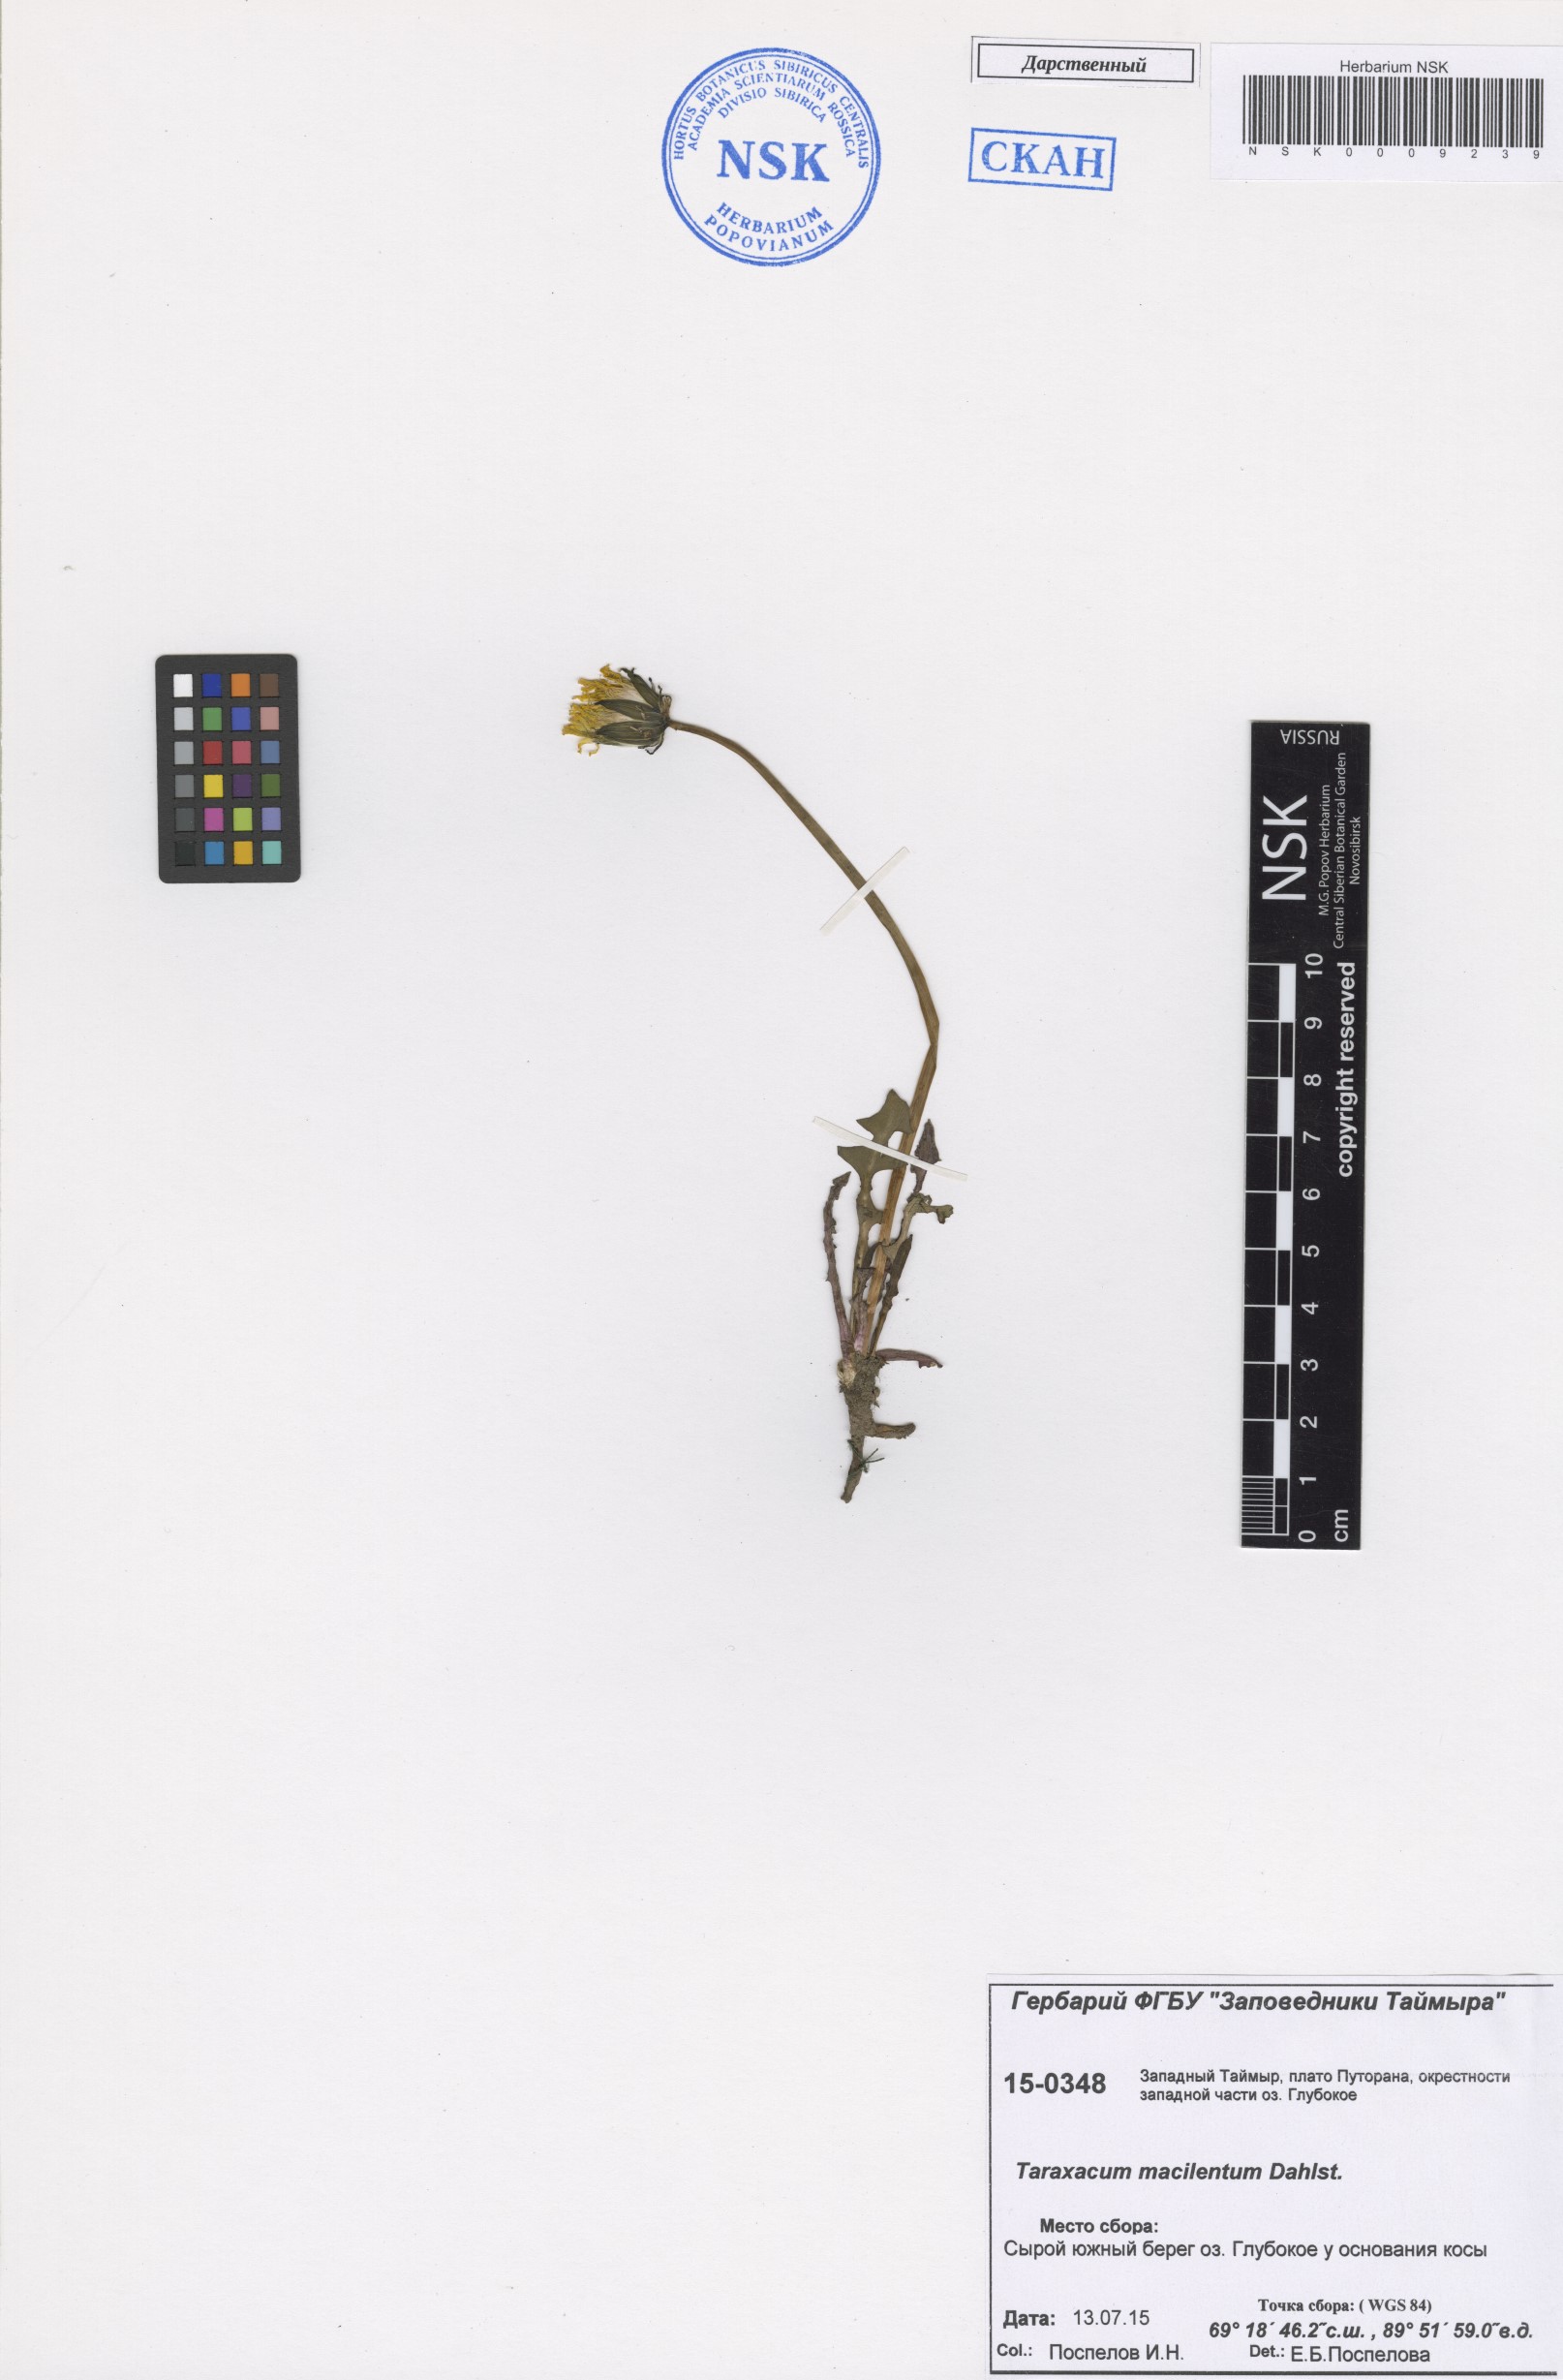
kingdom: Plantae
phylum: Tracheophyta
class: Magnoliopsida
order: Asterales
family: Asteraceae
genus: Taraxacum
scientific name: Taraxacum macilentum
